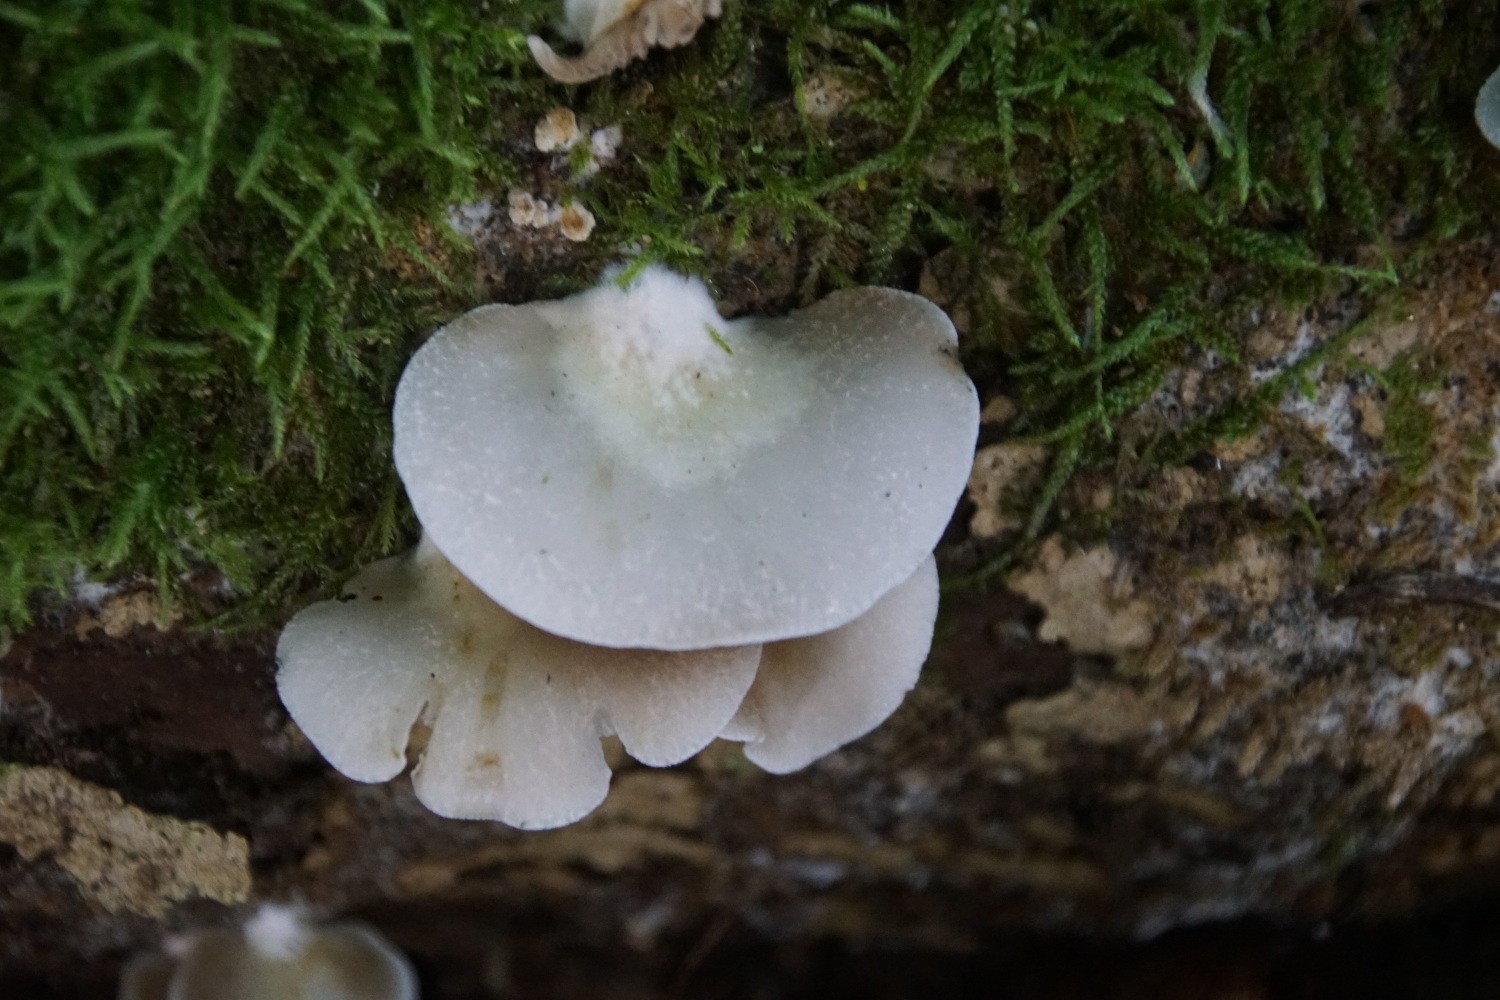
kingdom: Fungi
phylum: Basidiomycota
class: Agaricomycetes
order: Agaricales
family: Crepidotaceae
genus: Crepidotus
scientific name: Crepidotus mollis
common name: blød muslingesvamp
